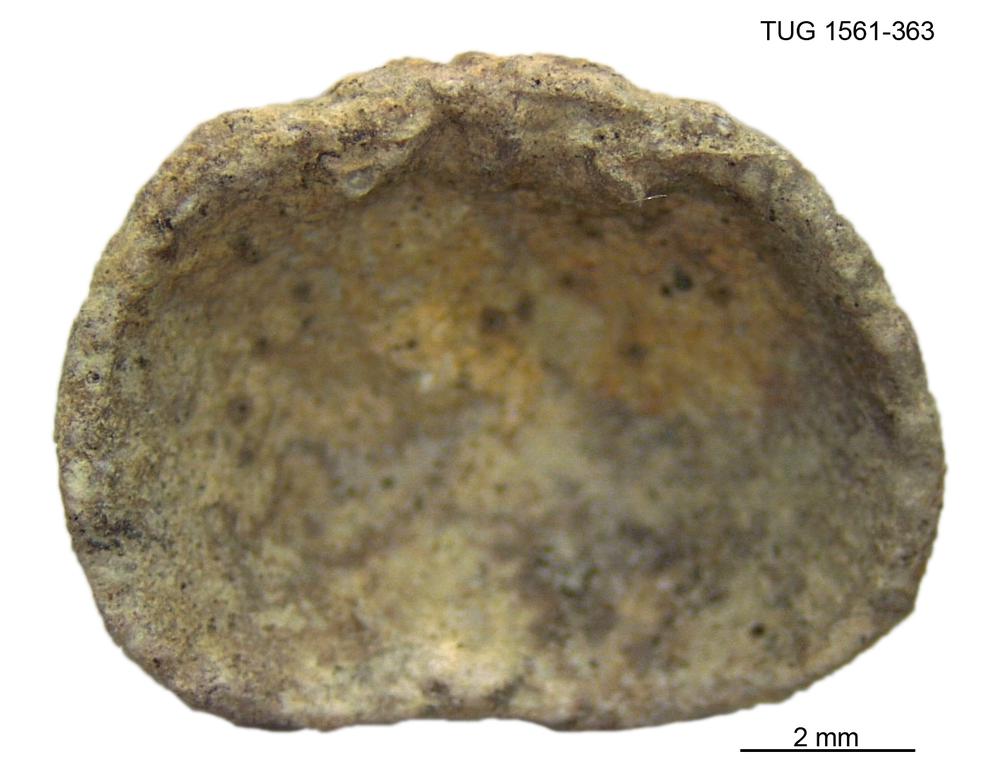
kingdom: Animalia
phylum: Brachiopoda
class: Rhynchonellata
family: Hesperorthidae
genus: Ptychopleurella
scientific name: Ptychopleurella Orthis bouchardi
